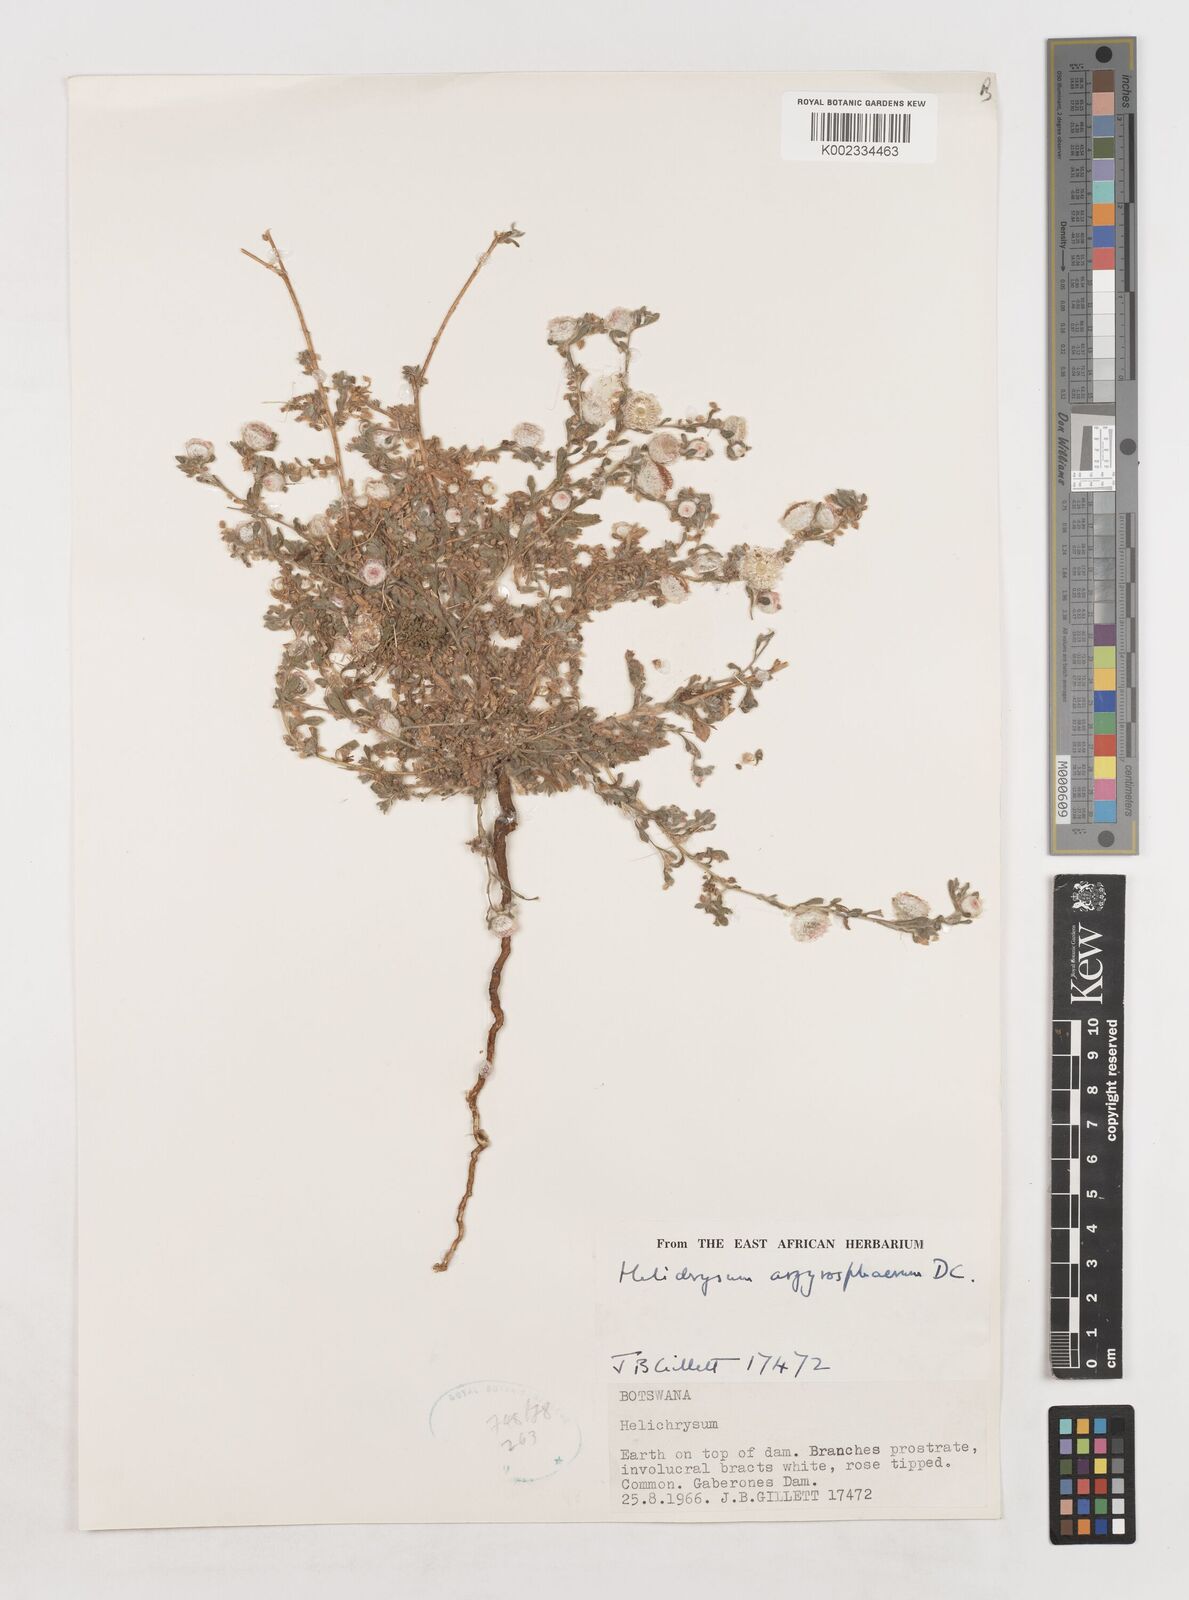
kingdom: Plantae
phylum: Tracheophyta
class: Magnoliopsida
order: Asterales
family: Asteraceae
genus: Helichrysum
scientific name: Helichrysum argyrosphaerum
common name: Wild everlasting
